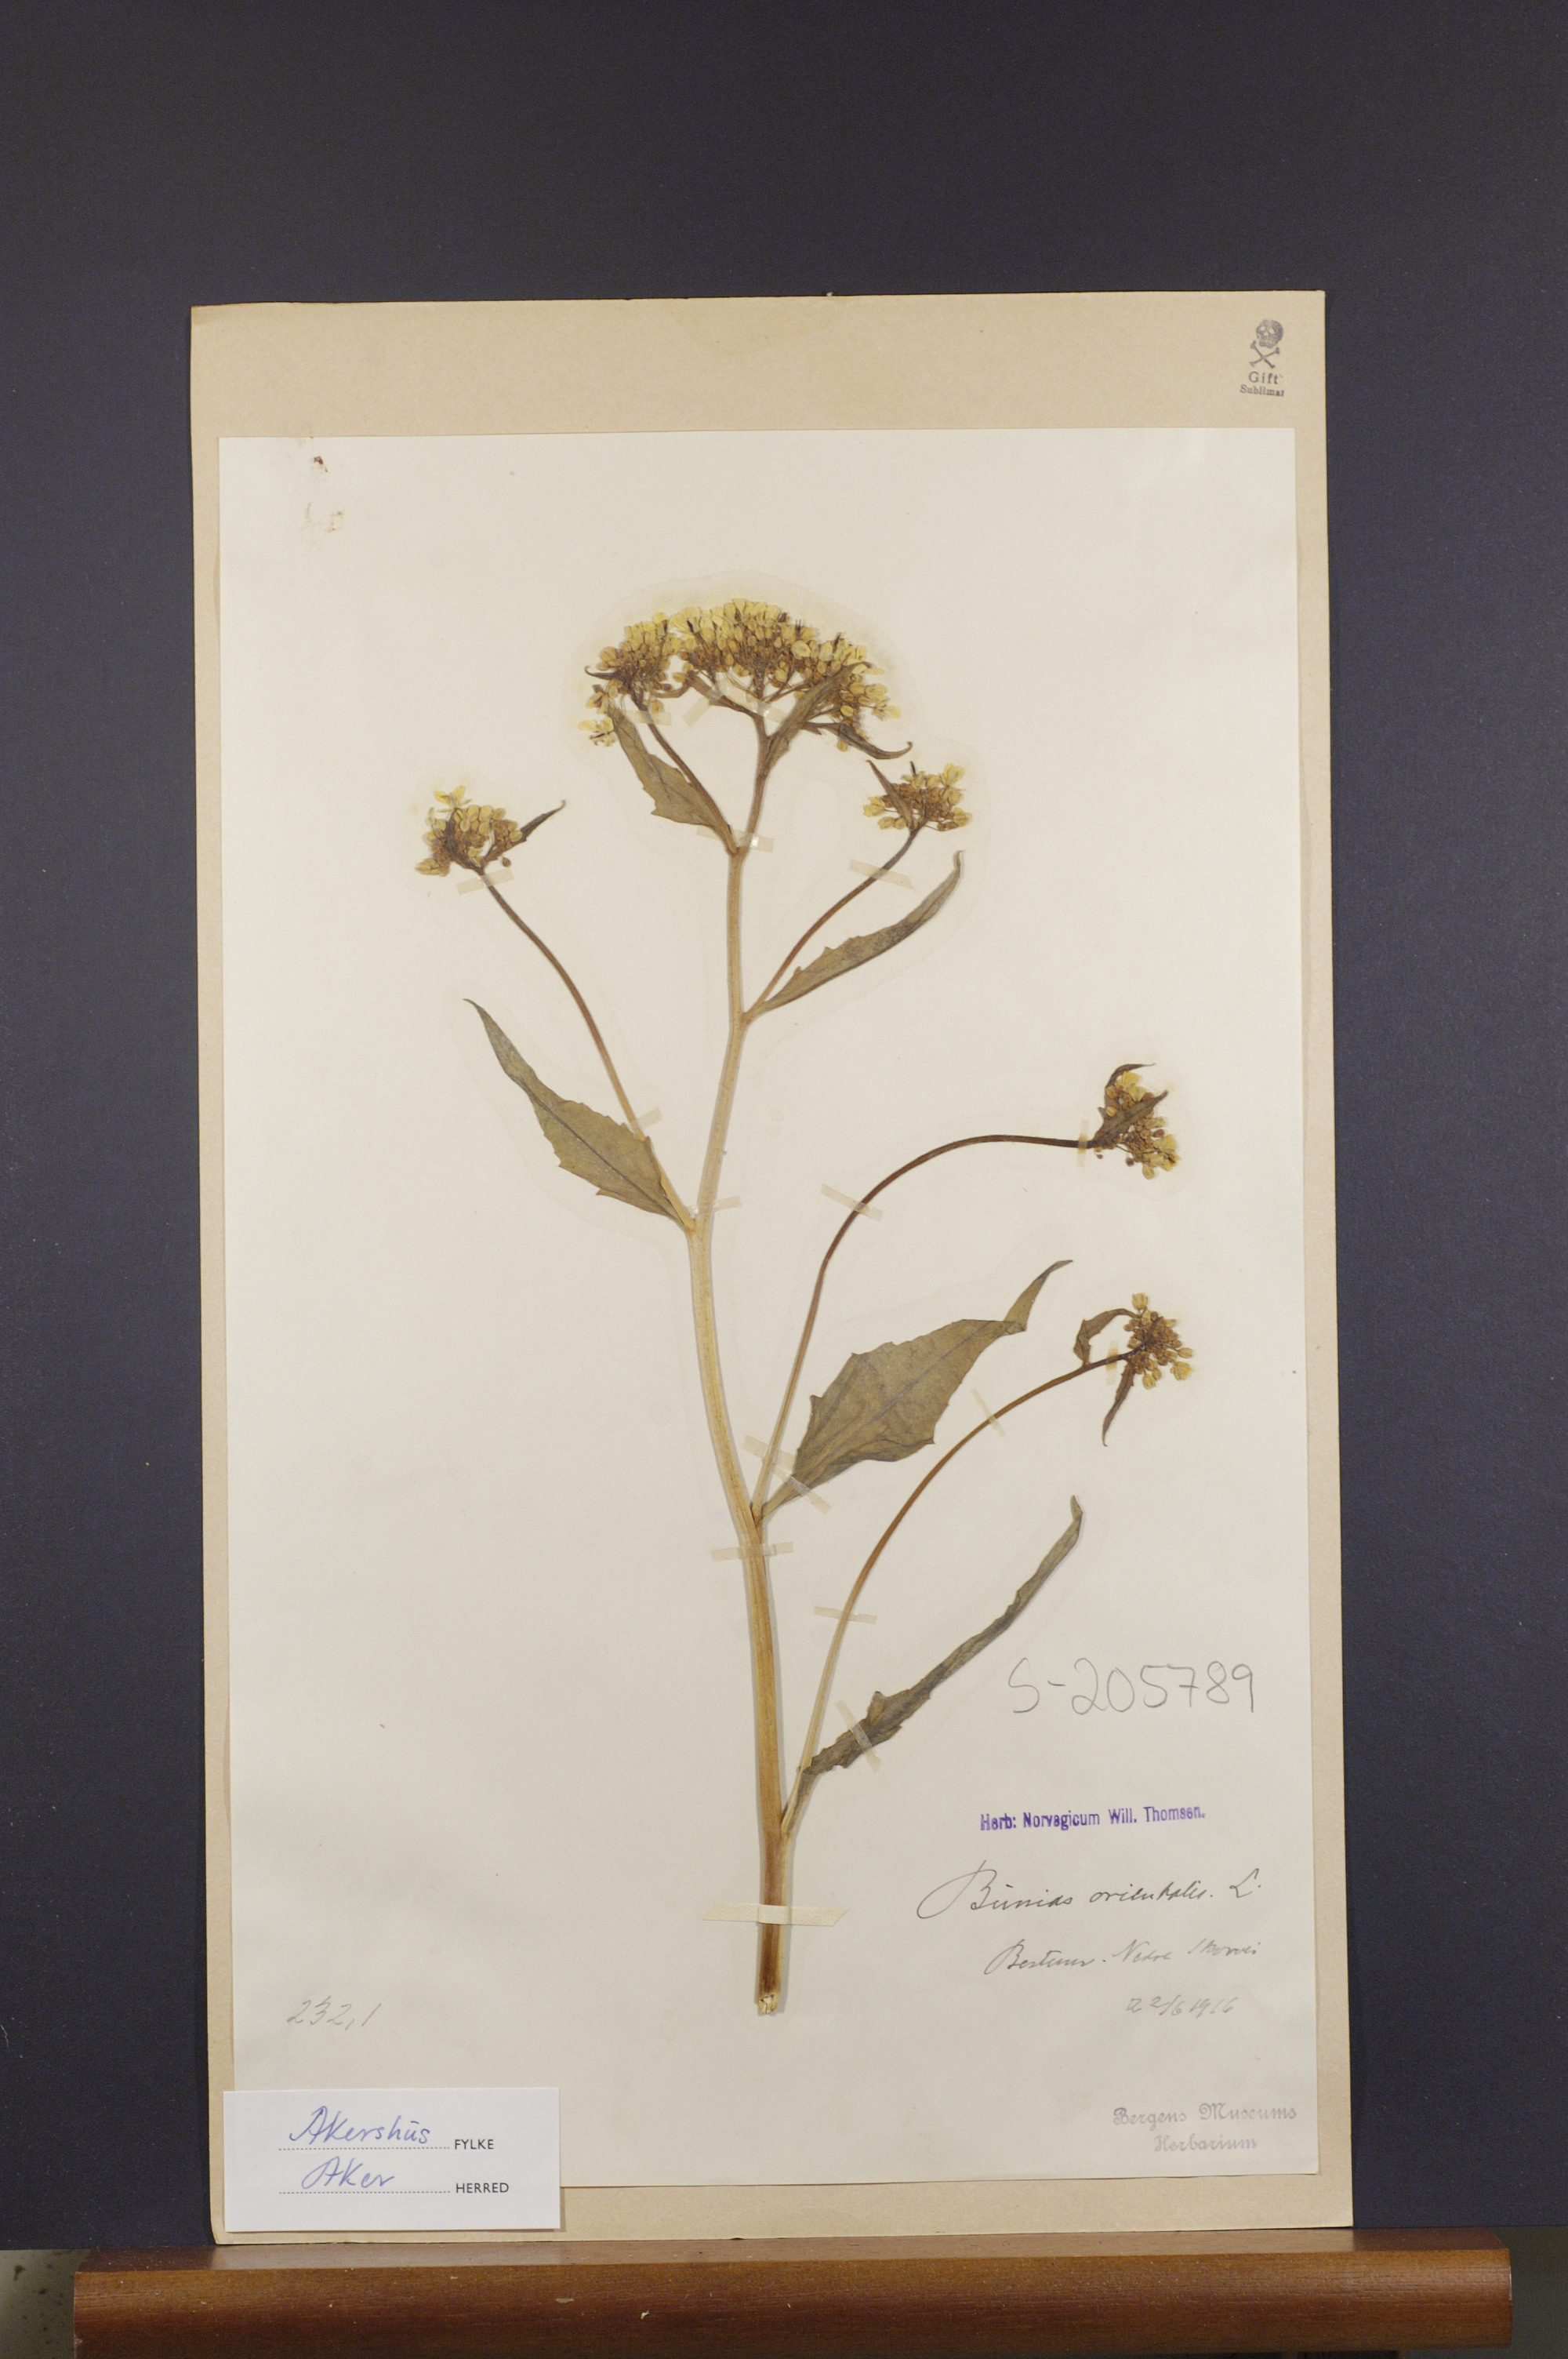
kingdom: Plantae
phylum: Tracheophyta
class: Magnoliopsida
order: Brassicales
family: Brassicaceae
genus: Bunias
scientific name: Bunias orientalis
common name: Warty-cabbage
